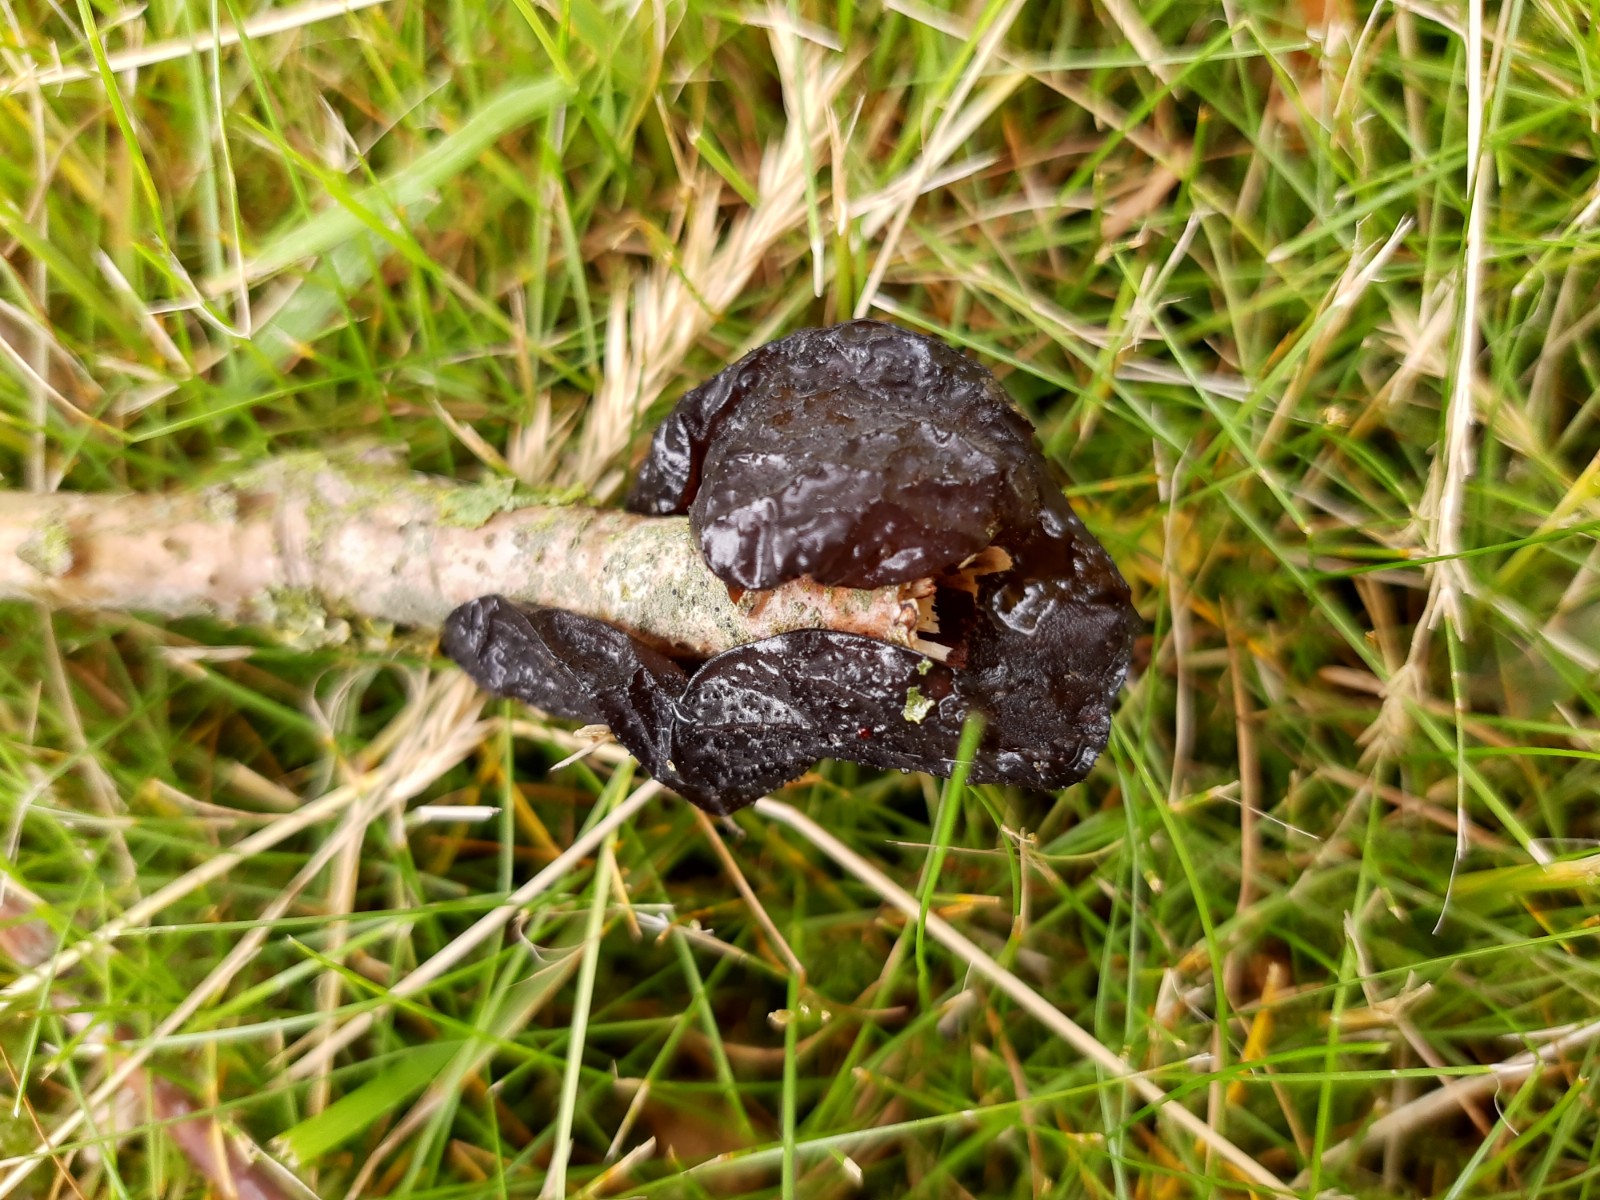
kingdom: Fungi
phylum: Basidiomycota
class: Agaricomycetes
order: Auriculariales
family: Auriculariaceae
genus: Exidia
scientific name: Exidia glandulosa
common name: ege-bævretop
